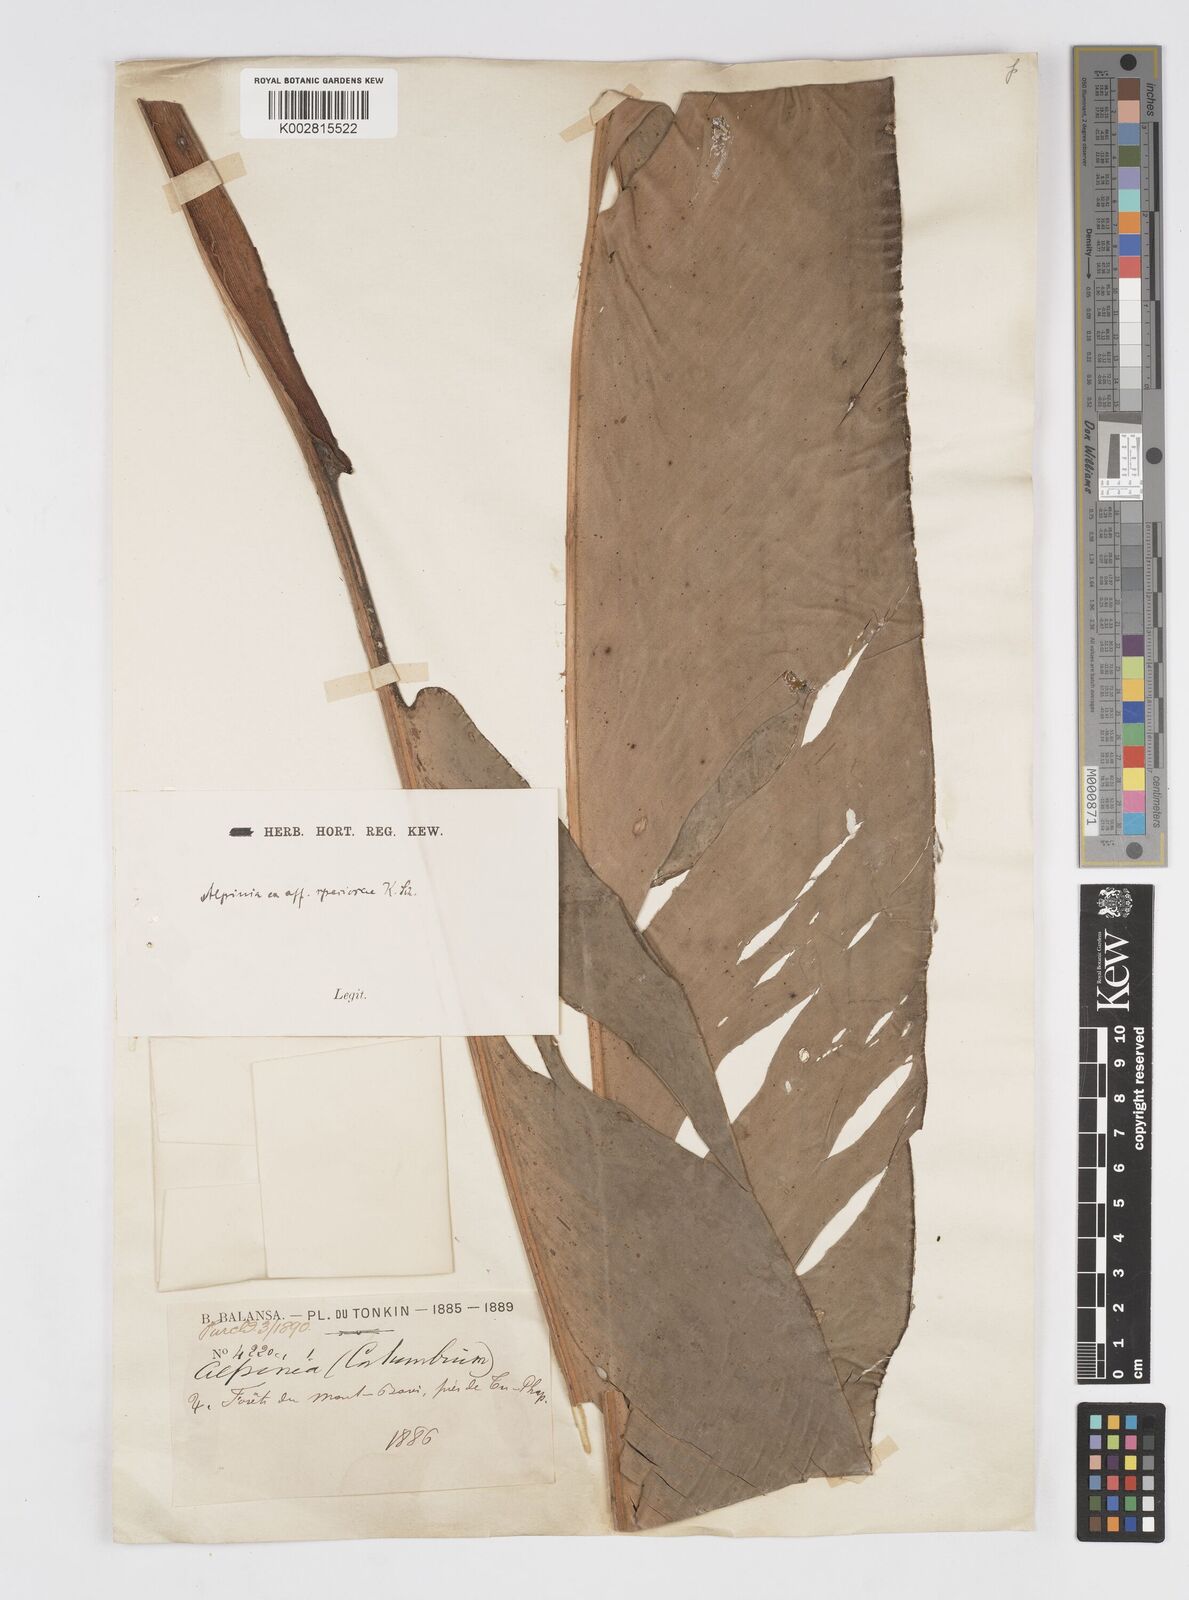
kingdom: Plantae
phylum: Tracheophyta
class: Liliopsida
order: Zingiberales
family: Zingiberaceae
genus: Alpinia
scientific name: Alpinia zerumbet
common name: Shellplant
